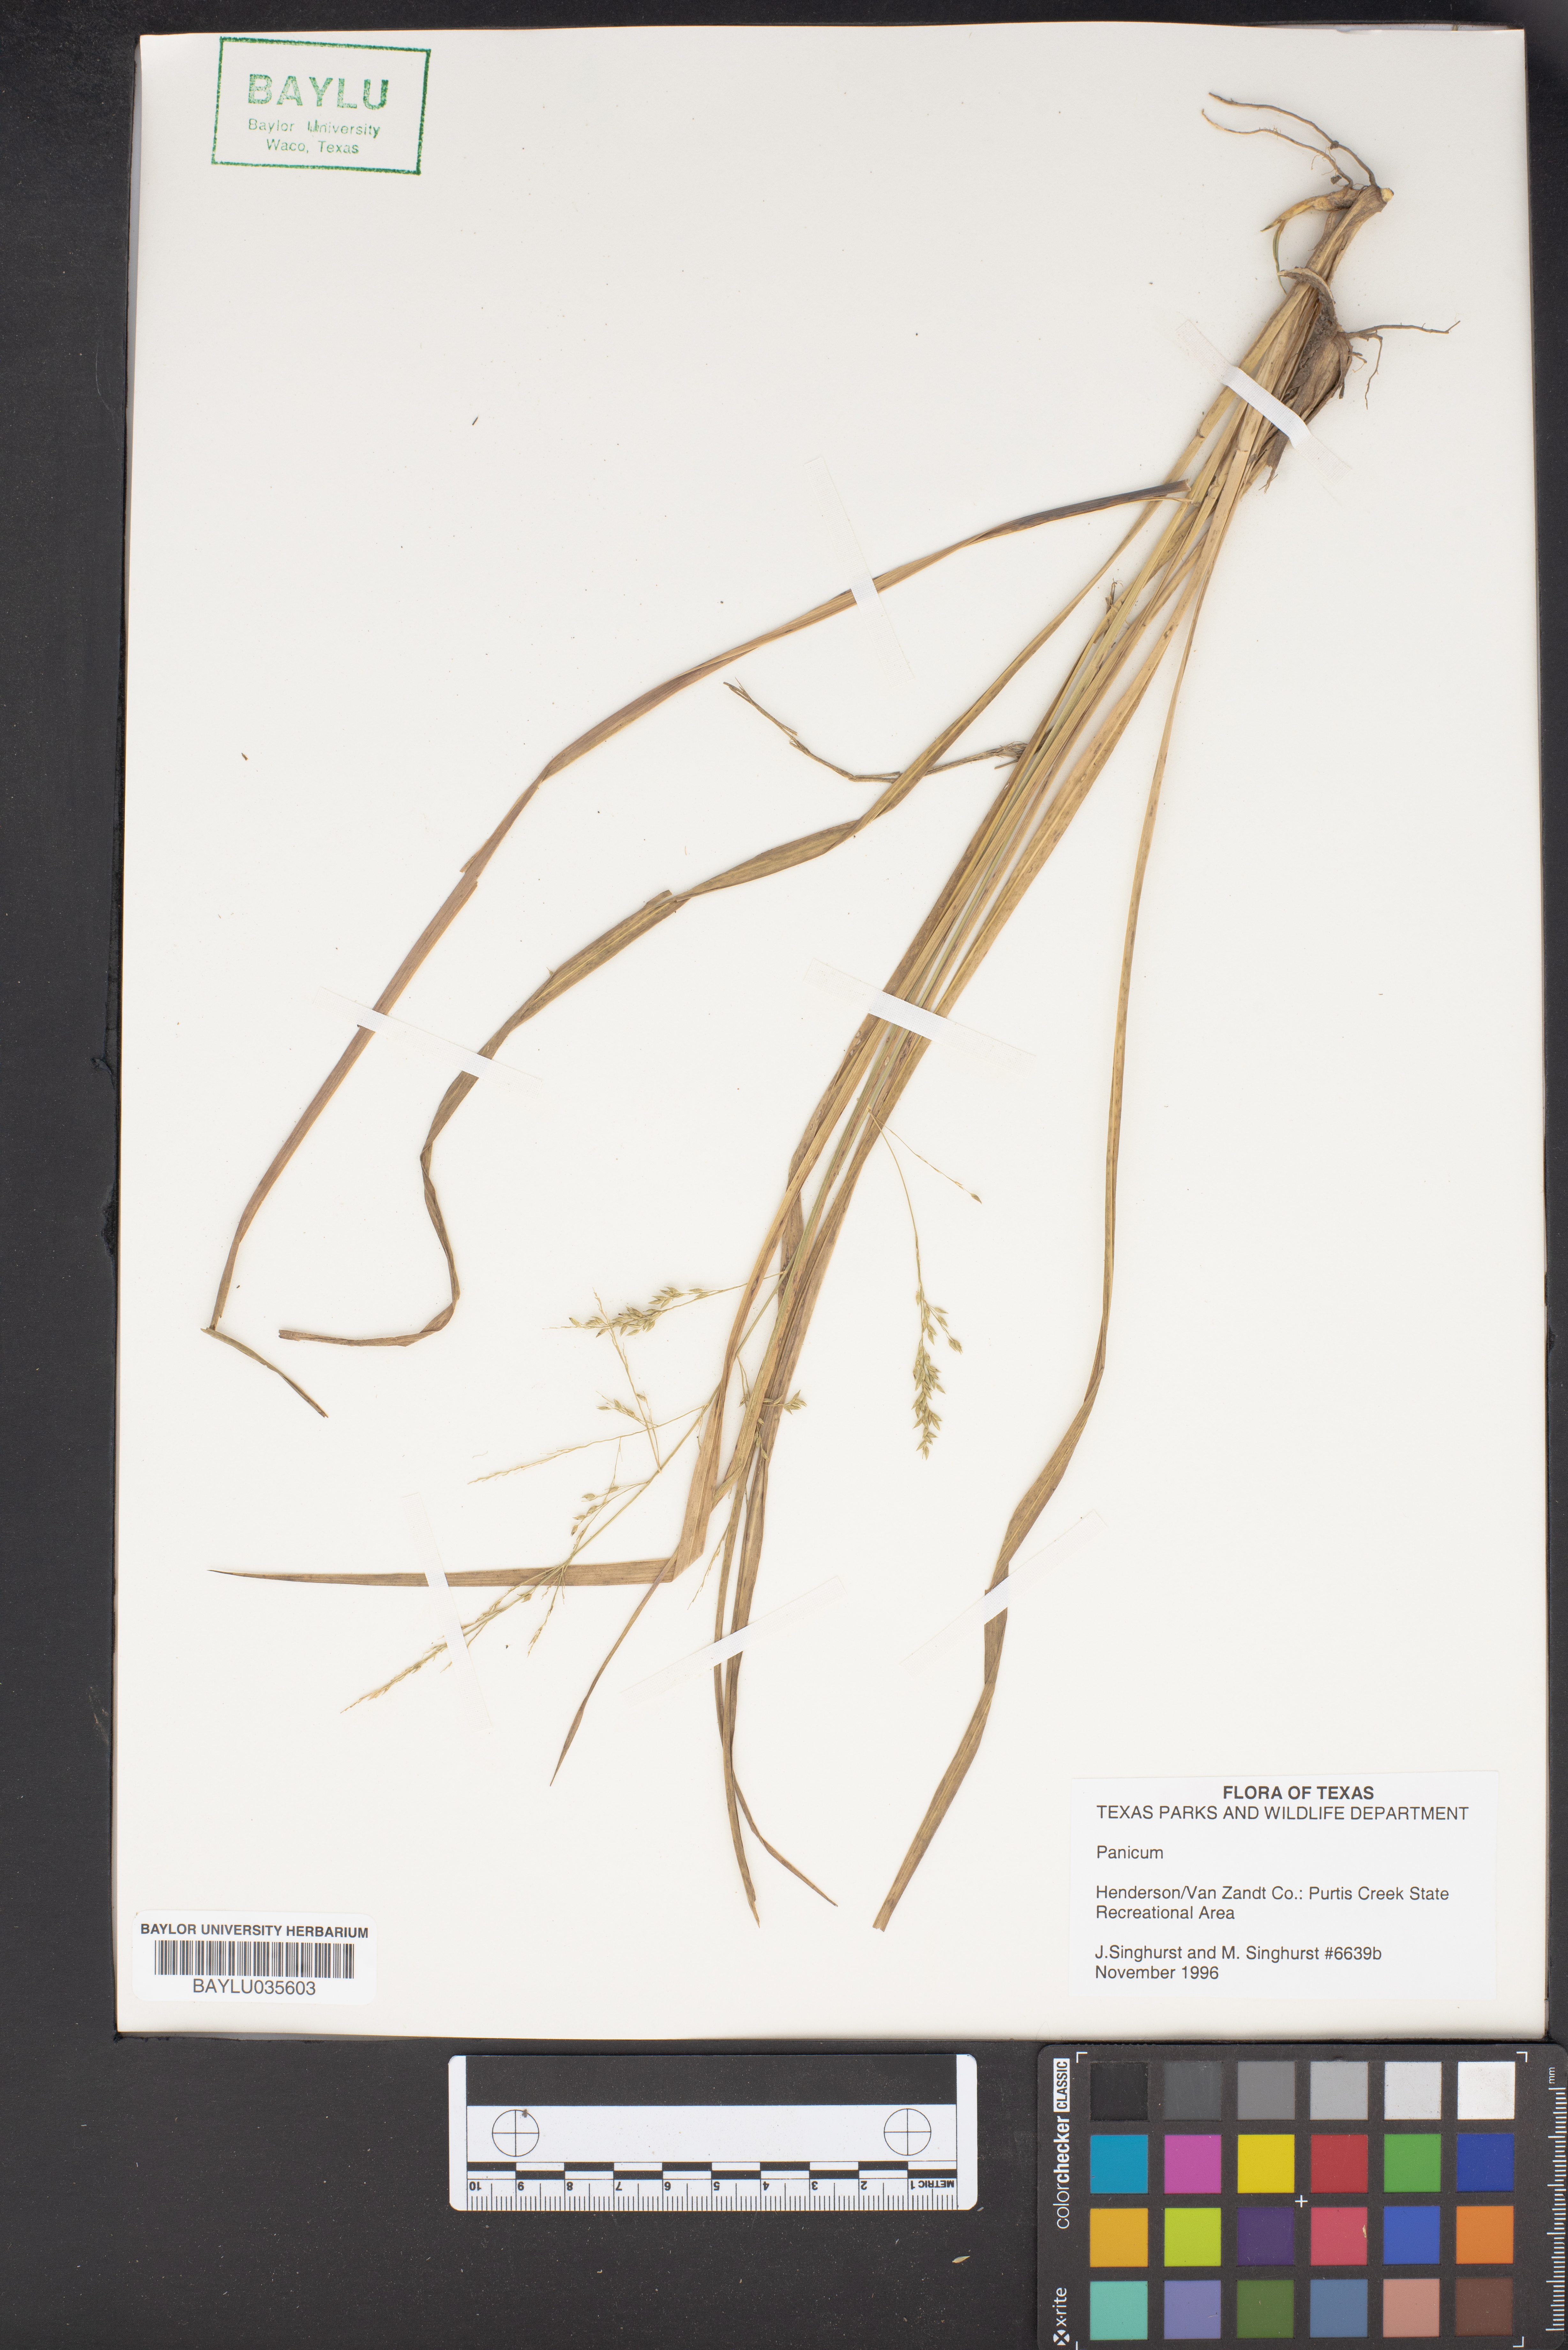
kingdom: Plantae
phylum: Tracheophyta
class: Liliopsida
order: Poales
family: Poaceae
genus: Panicum
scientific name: Panicum
